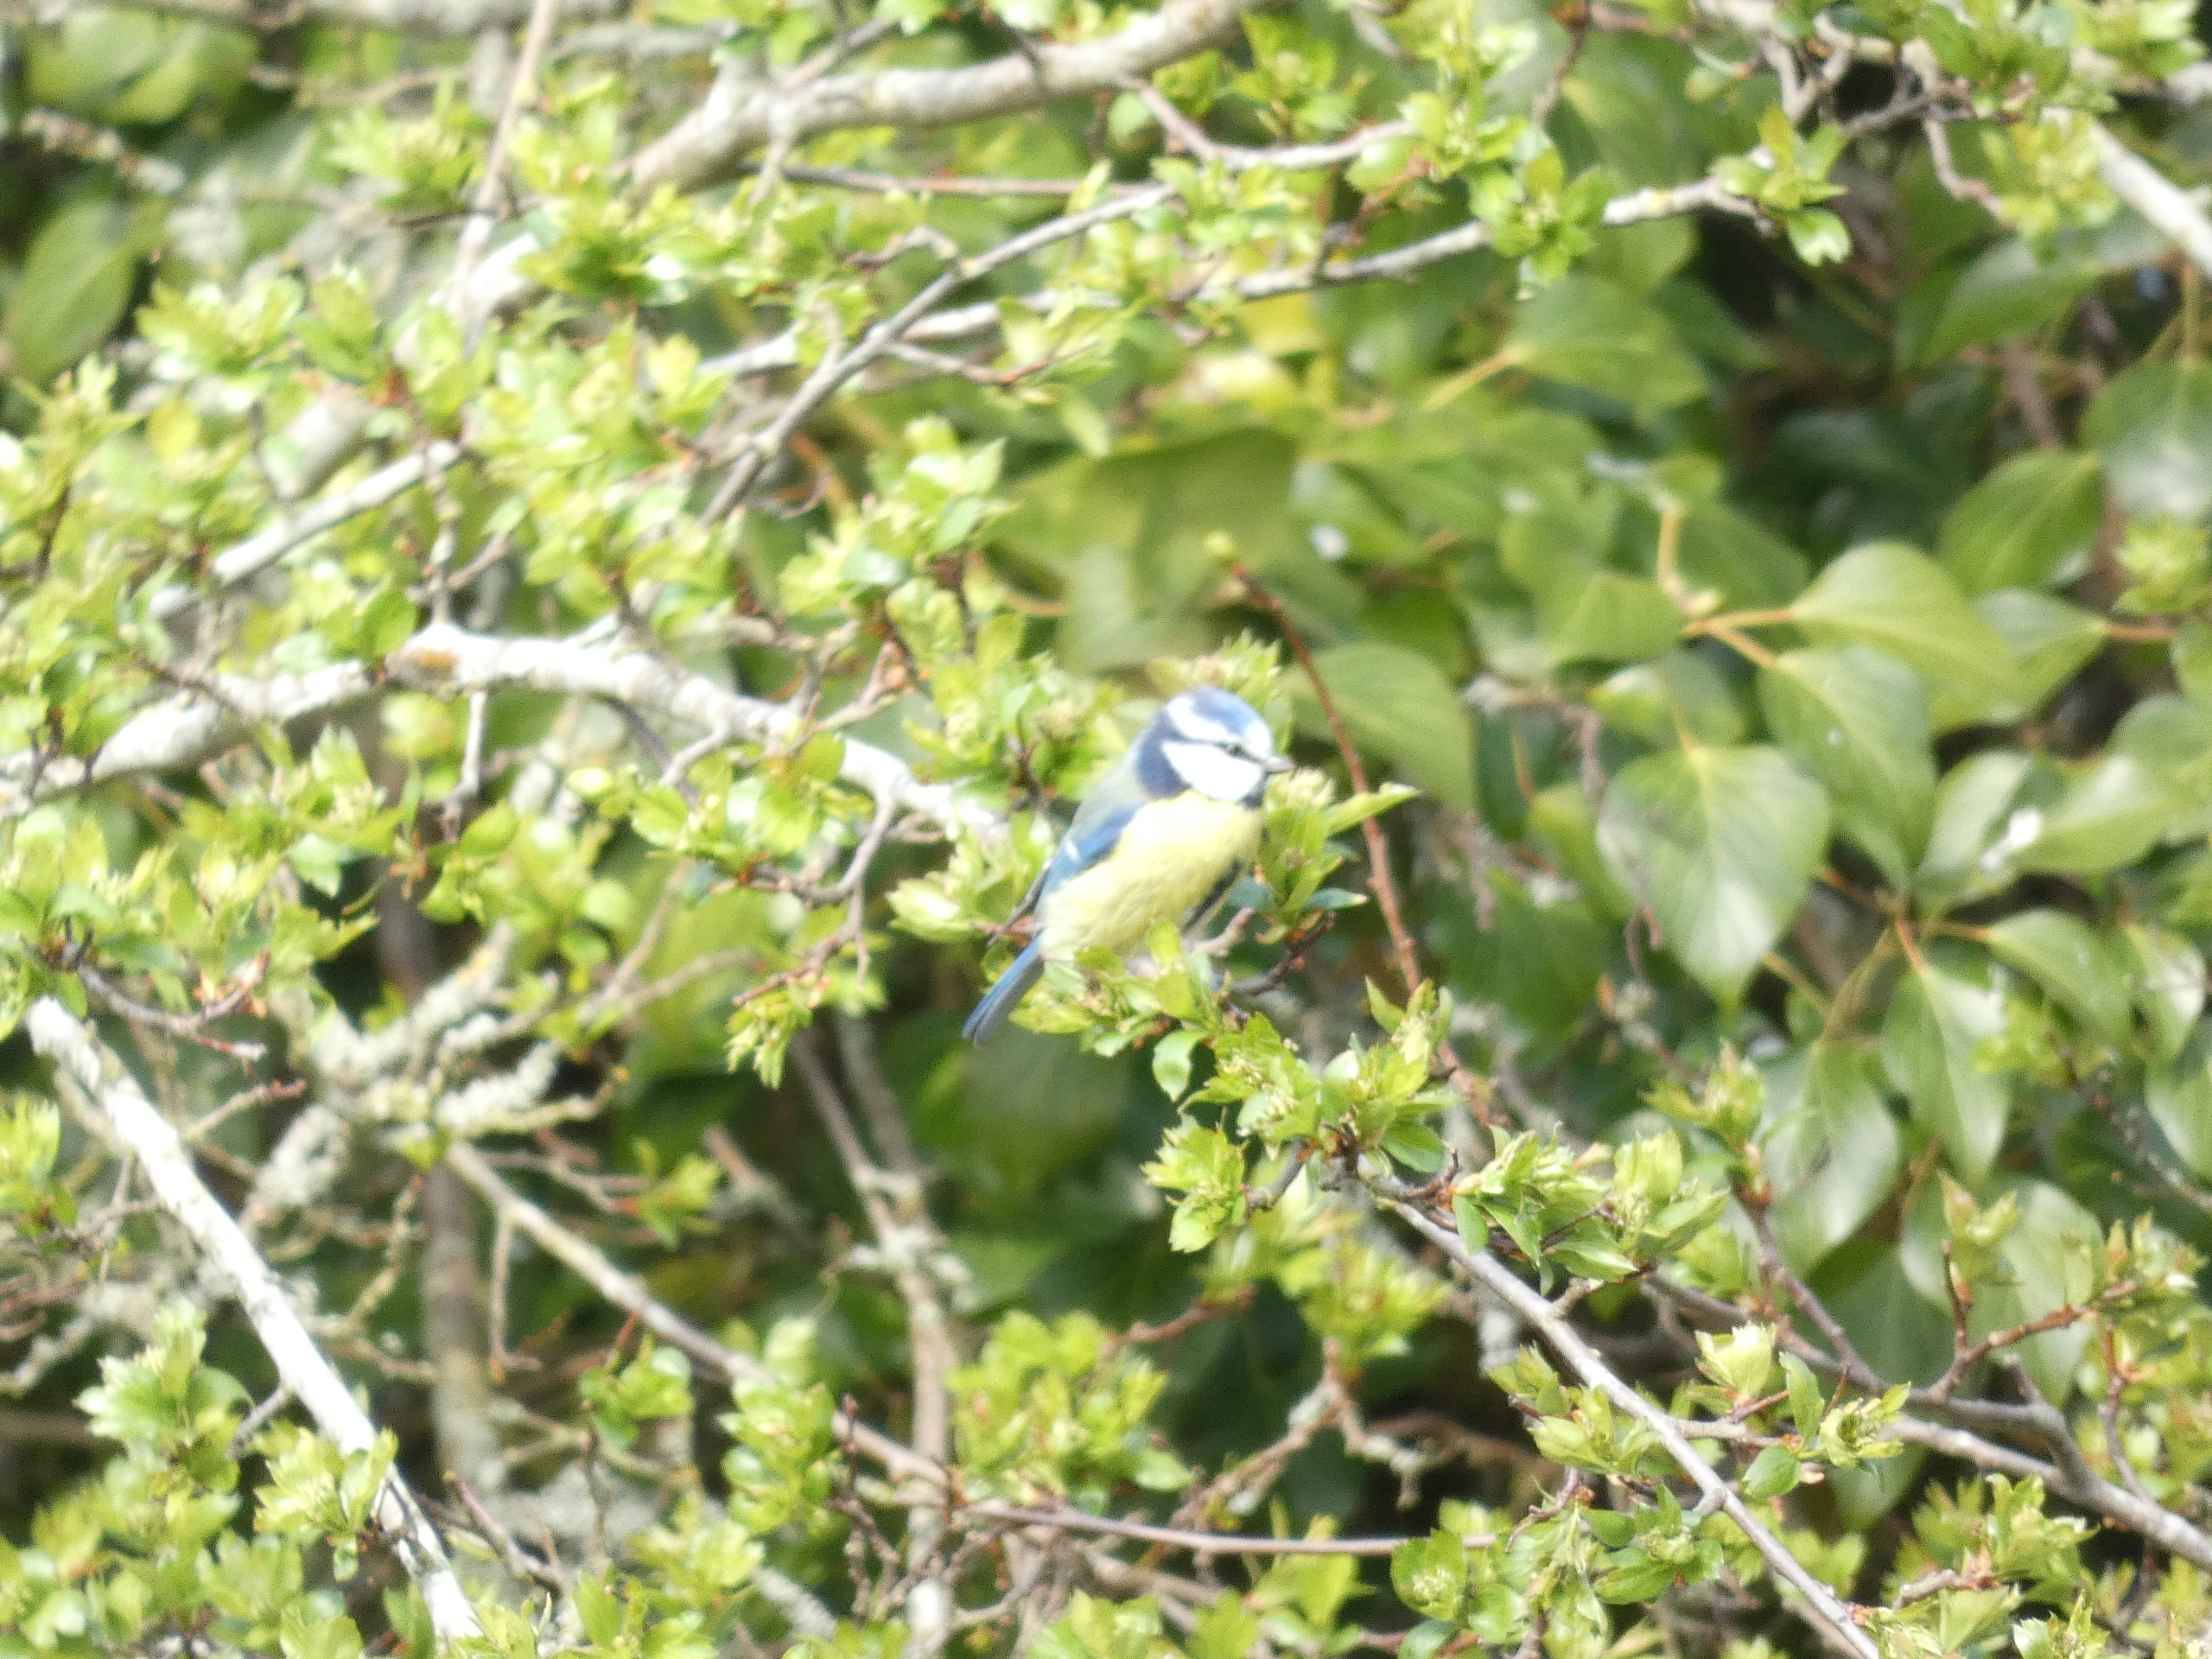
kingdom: Animalia
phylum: Chordata
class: Aves
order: Passeriformes
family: Paridae
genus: Cyanistes
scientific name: Cyanistes caeruleus
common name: Blåmejse
